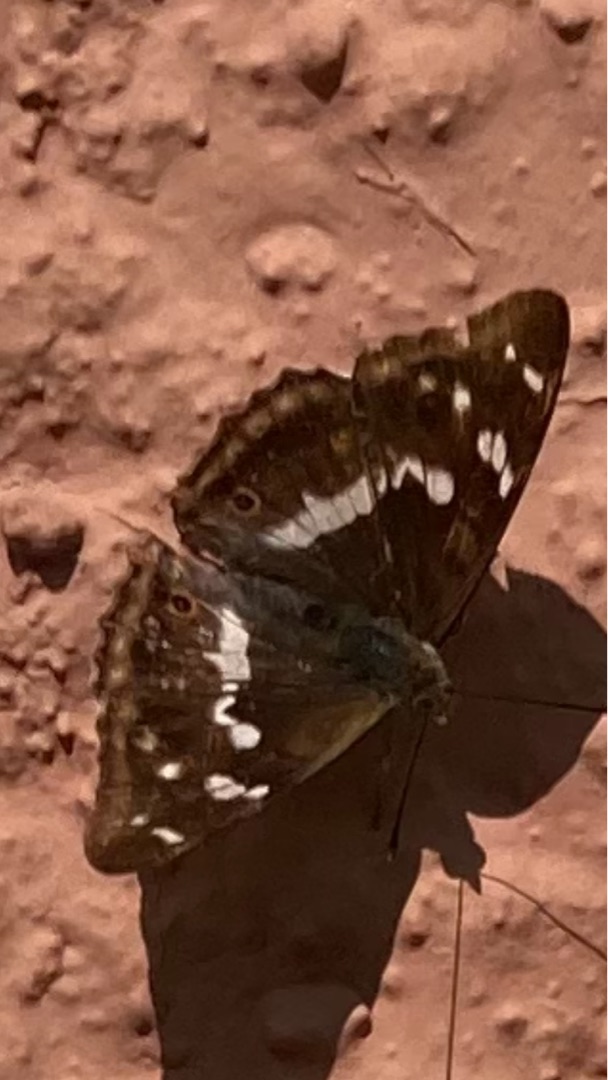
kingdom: Animalia
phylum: Arthropoda
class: Insecta
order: Lepidoptera
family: Nymphalidae
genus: Apatura
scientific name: Apatura iris
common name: Iris
